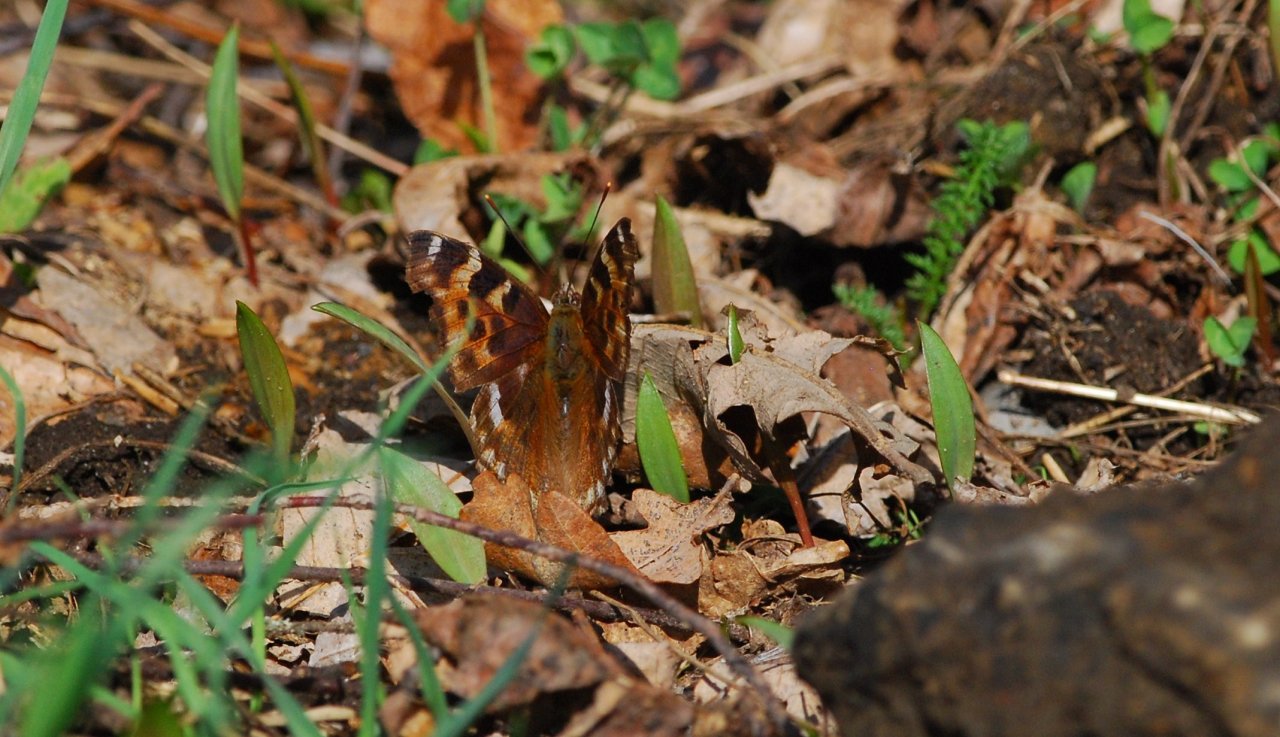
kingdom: Animalia
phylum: Arthropoda
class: Insecta
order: Lepidoptera
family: Nymphalidae
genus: Polygonia
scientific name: Polygonia vaualbum
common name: Compton Tortoiseshell
